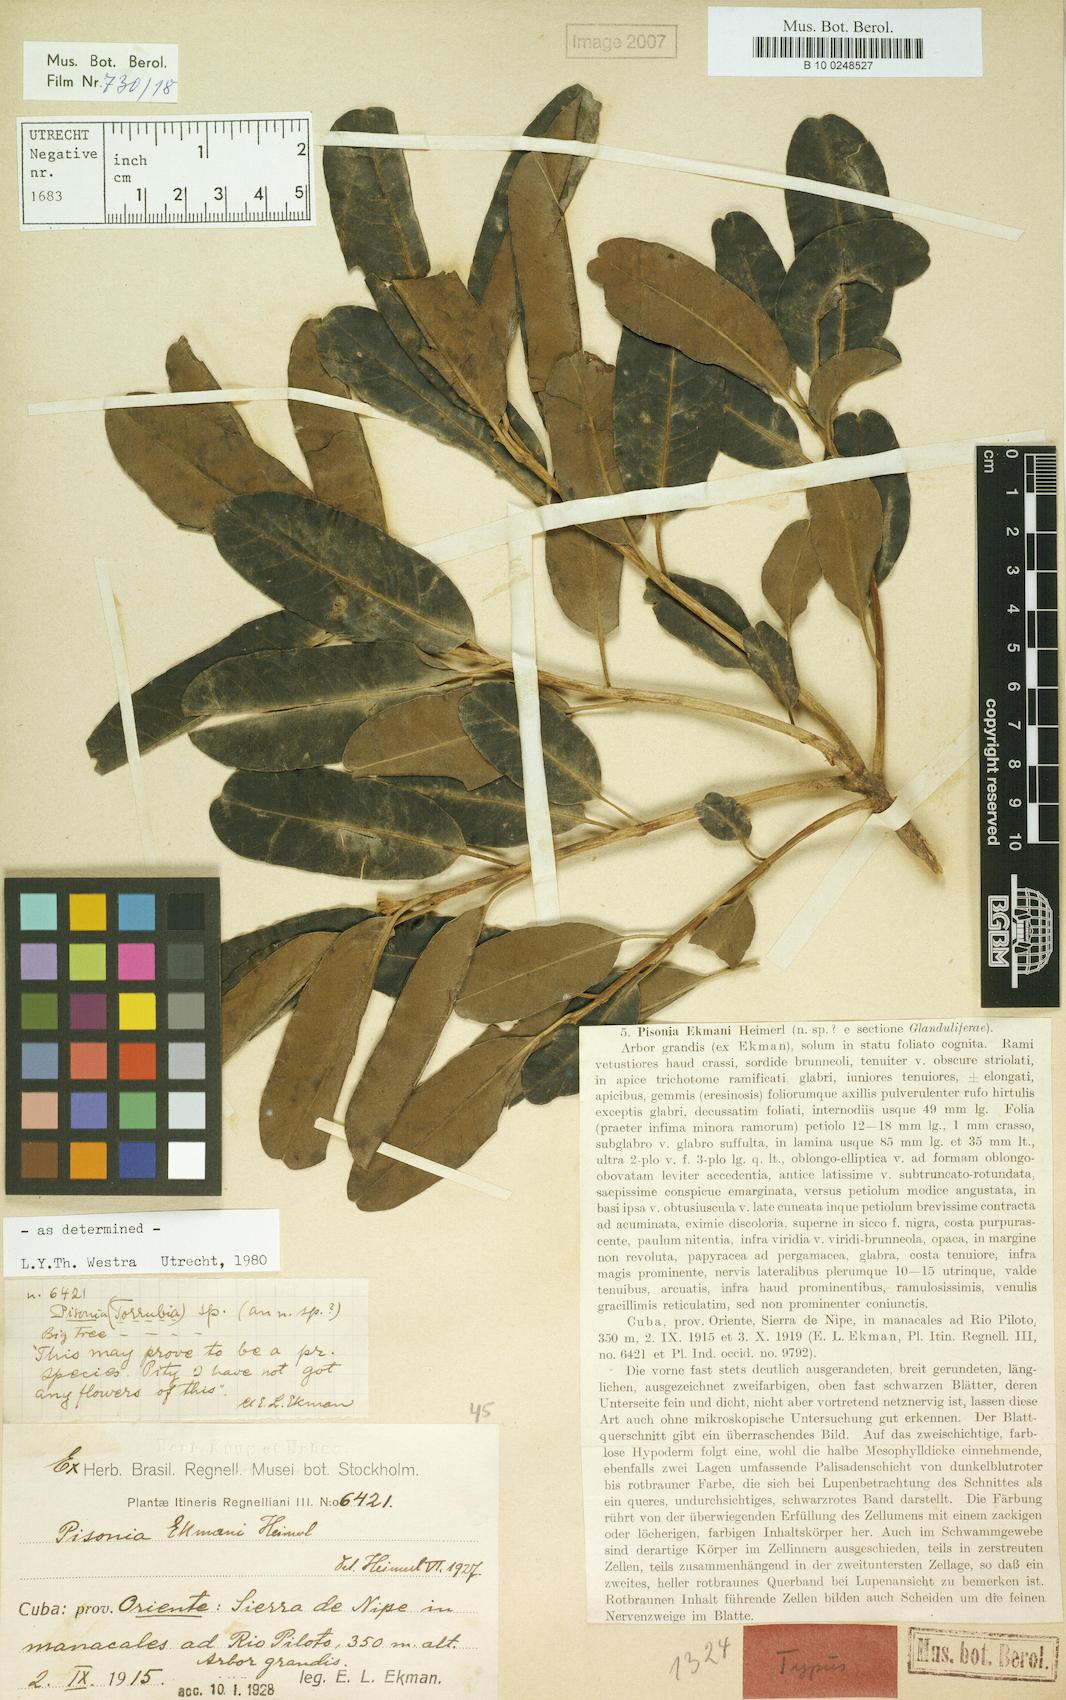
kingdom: Plantae
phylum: Tracheophyta
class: Magnoliopsida
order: Caryophyllales
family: Nyctaginaceae
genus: Pisonia
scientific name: Pisonia ekmanii
